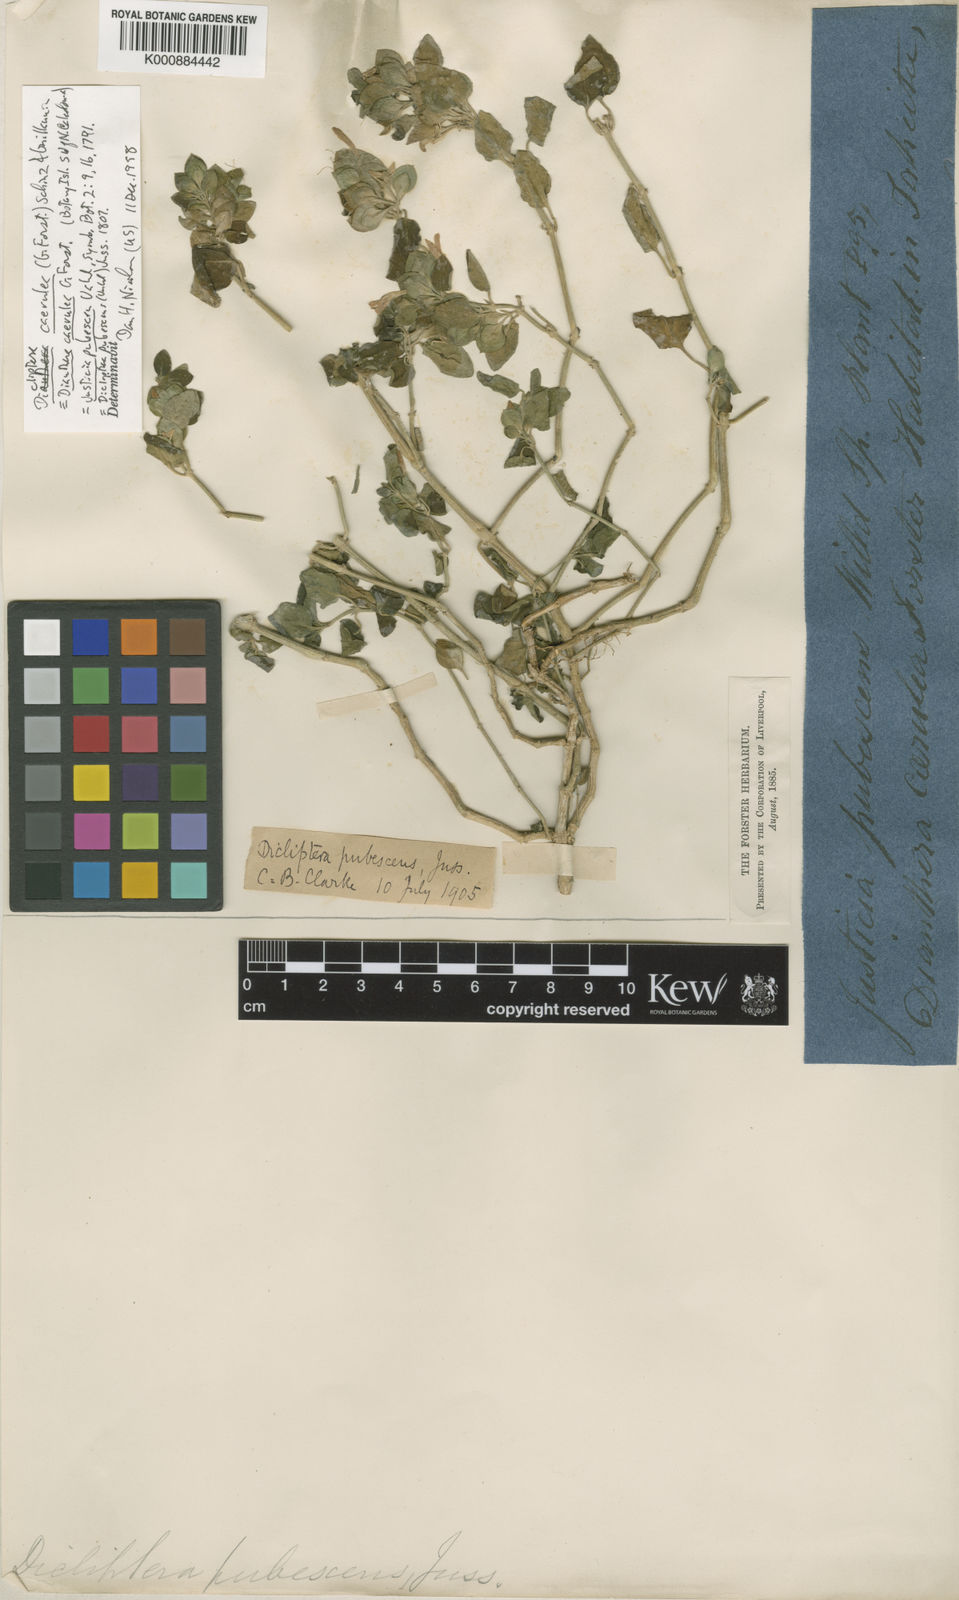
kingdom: Plantae
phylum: Tracheophyta
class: Magnoliopsida
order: Lamiales
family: Acanthaceae
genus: Dicliptera
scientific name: Dicliptera
